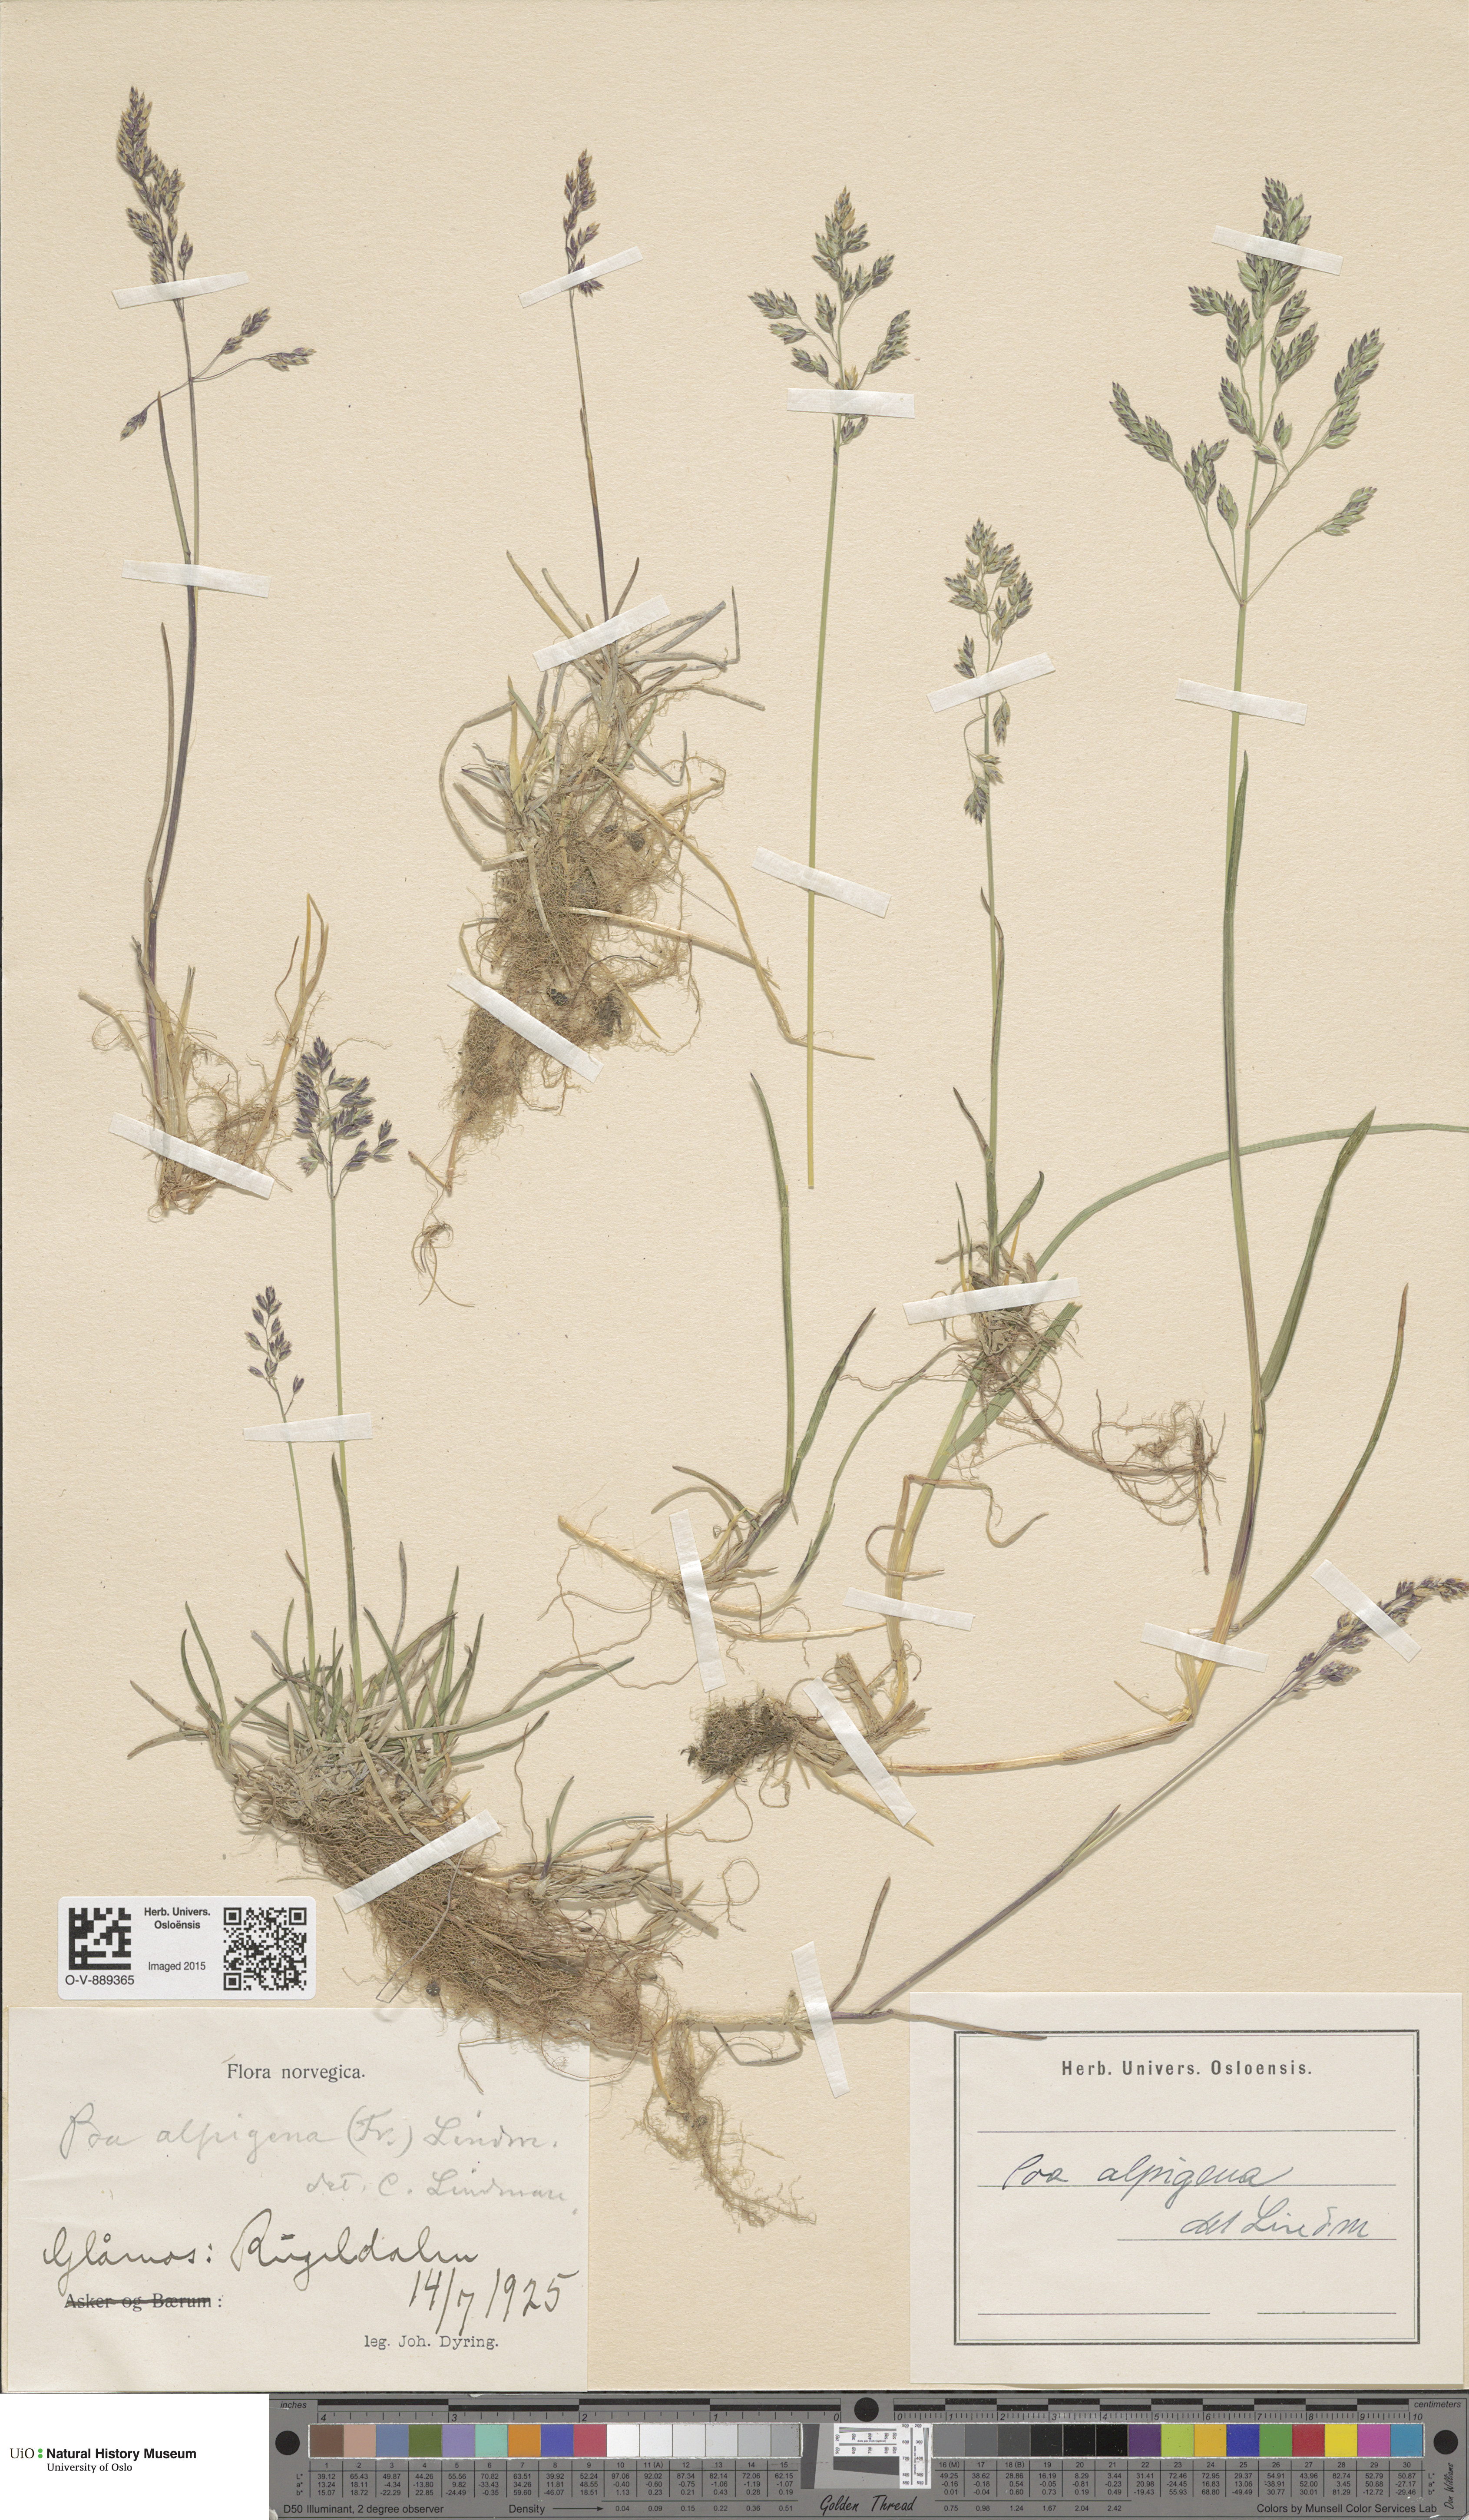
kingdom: Plantae
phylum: Tracheophyta
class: Liliopsida
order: Poales
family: Poaceae
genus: Poa
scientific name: Poa alpigena
